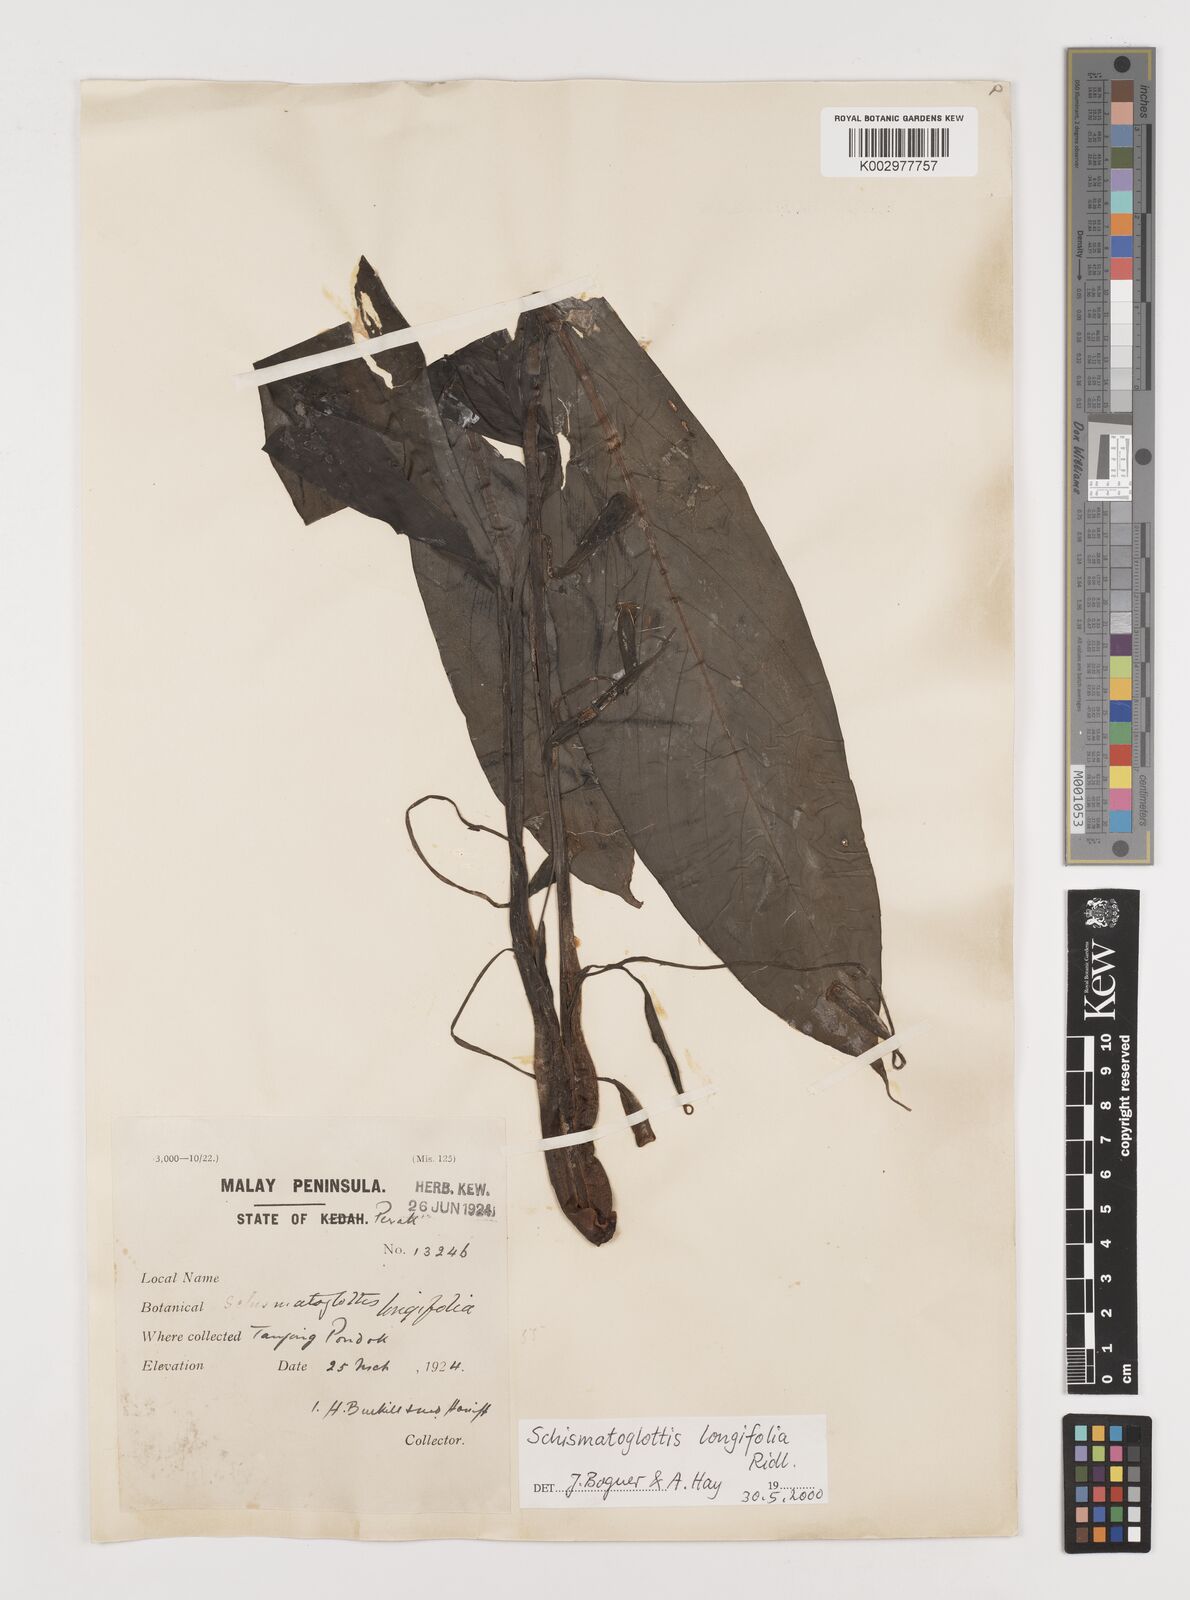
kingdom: Plantae
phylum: Tracheophyta
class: Liliopsida
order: Alismatales
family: Araceae
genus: Vesta
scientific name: Vesta longifolia
